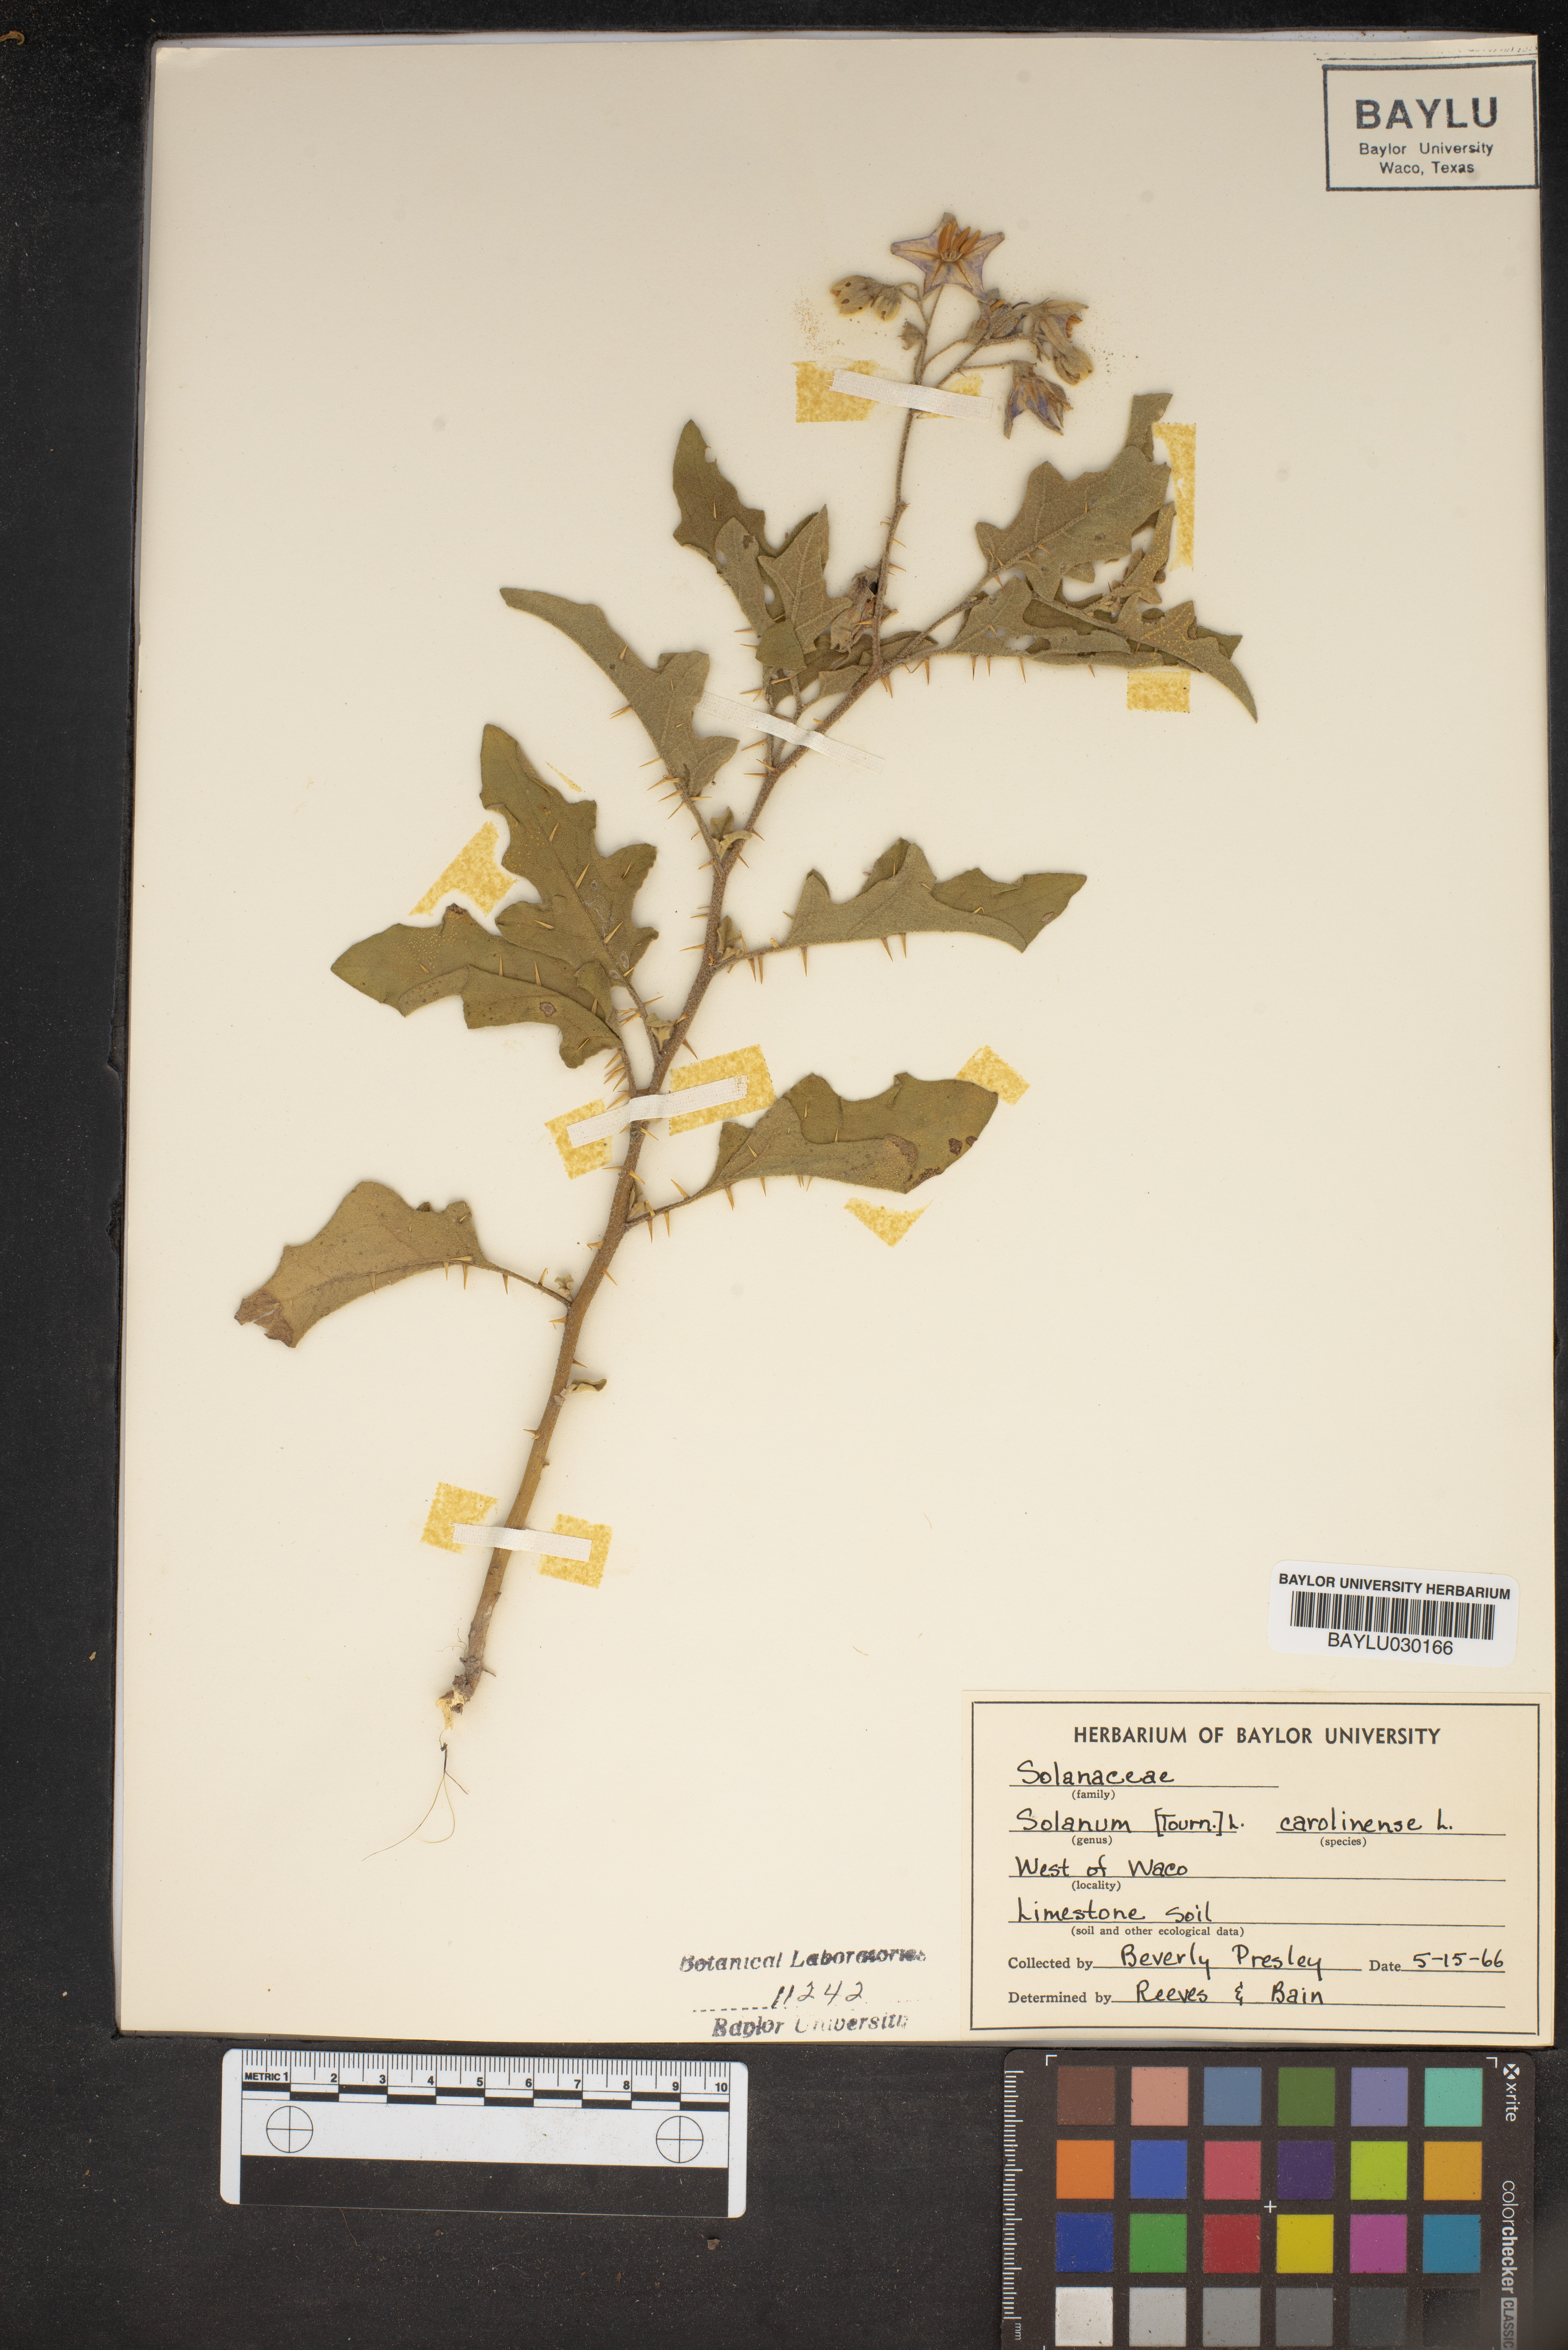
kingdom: Plantae
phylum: Tracheophyta
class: Magnoliopsida
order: Solanales
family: Solanaceae
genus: Solanum
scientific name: Solanum carolinense
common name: Horse-nettle
